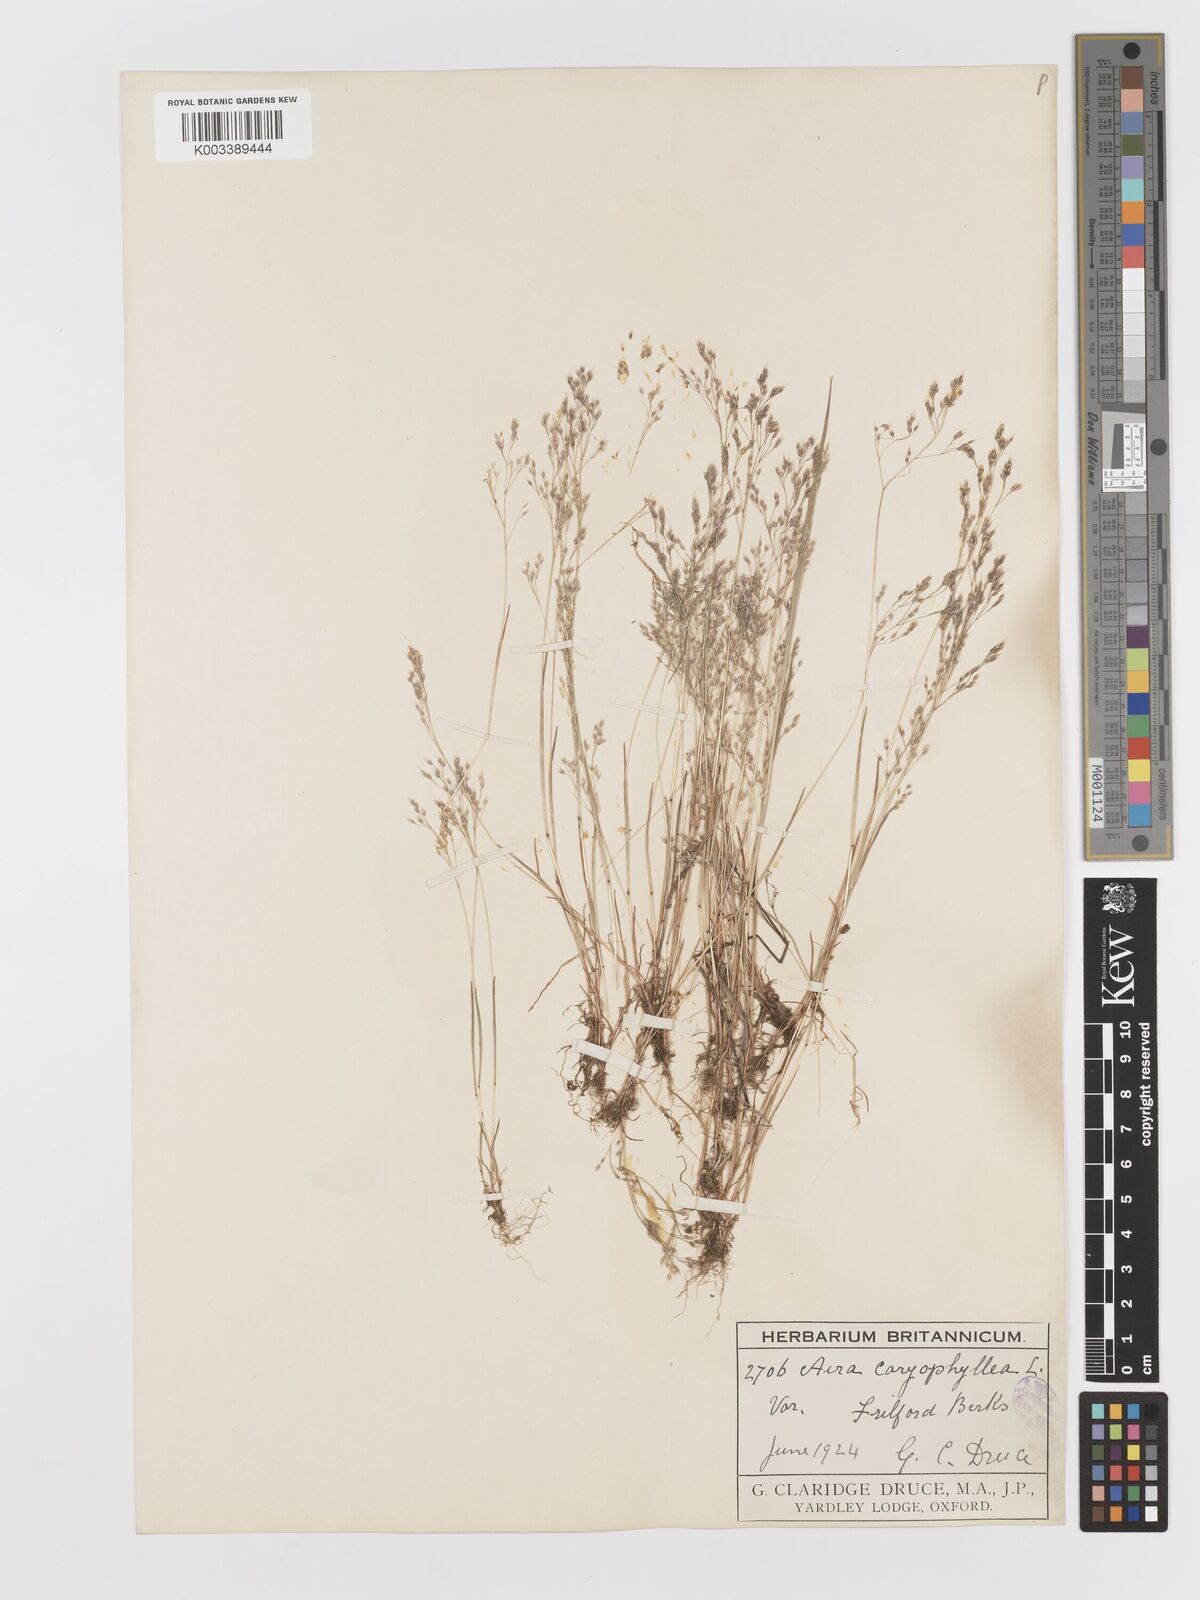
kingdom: Plantae
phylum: Tracheophyta
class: Liliopsida
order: Poales
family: Poaceae
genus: Aira
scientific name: Aira caryophyllea
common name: Silver hairgrass
